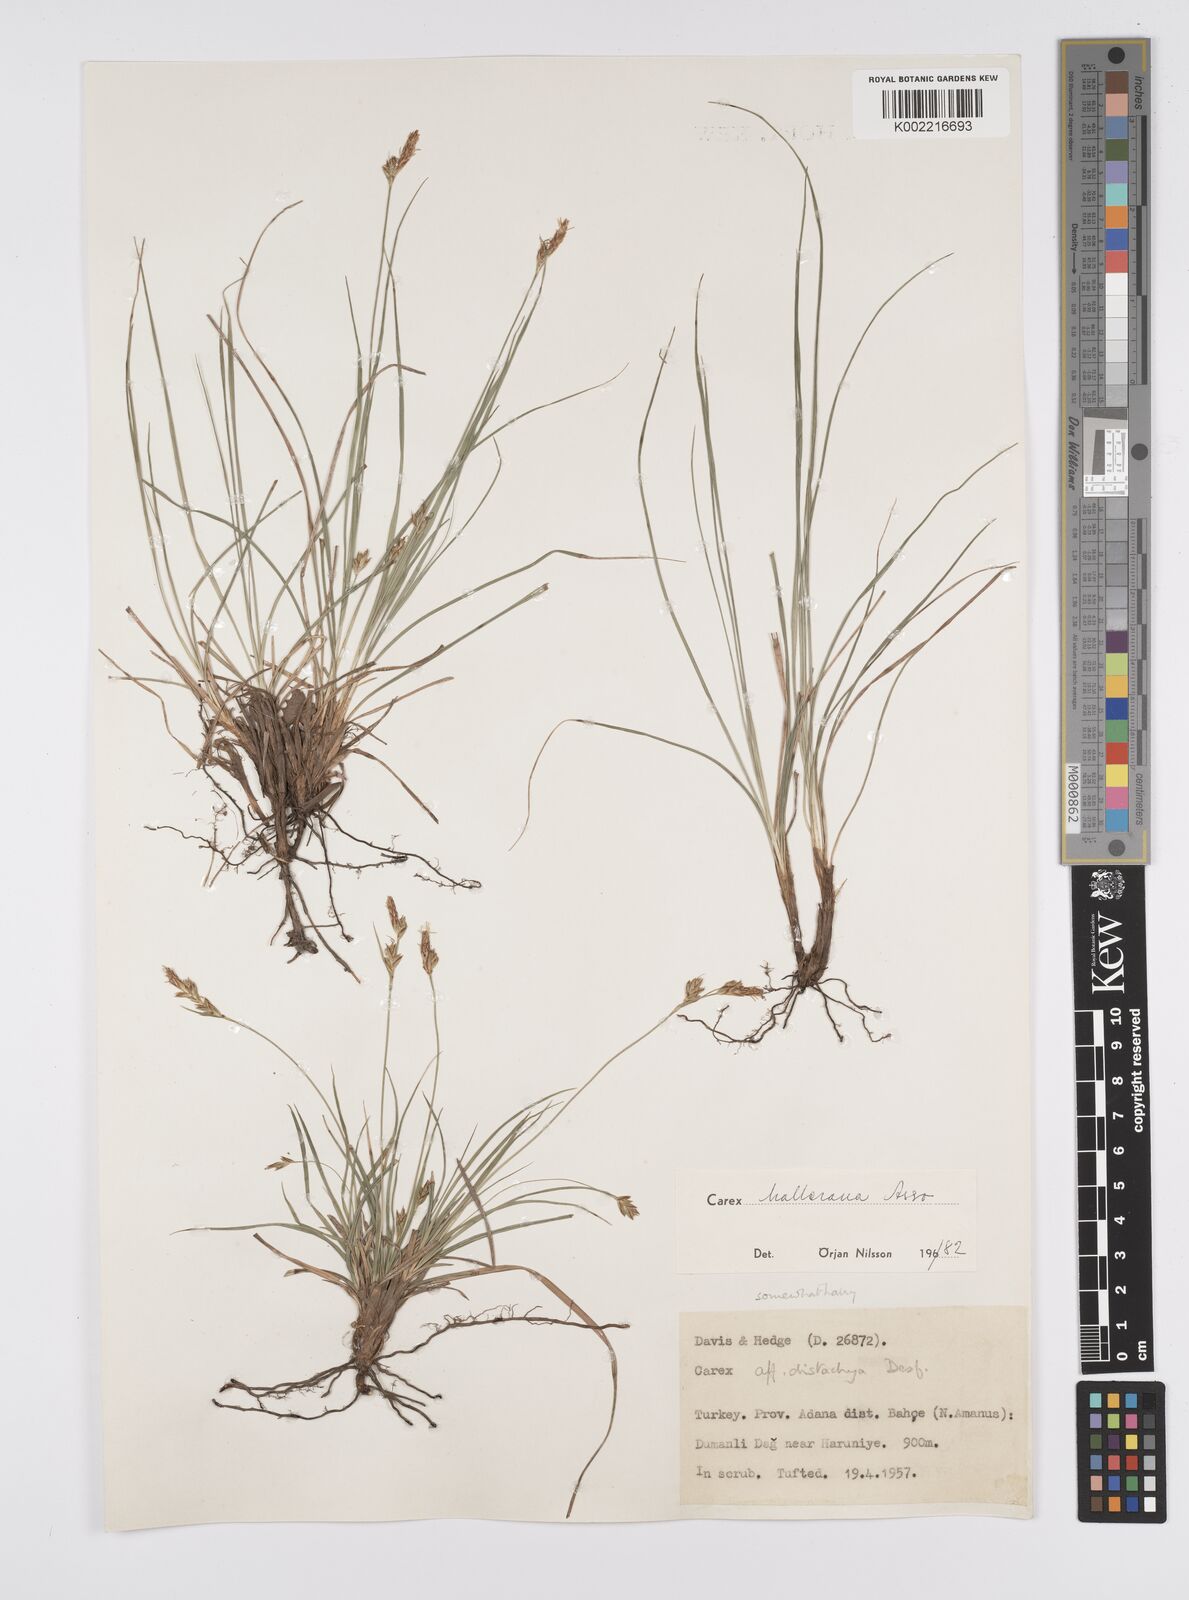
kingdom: Plantae
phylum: Tracheophyta
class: Liliopsida
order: Poales
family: Cyperaceae
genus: Carex
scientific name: Carex halleriana
